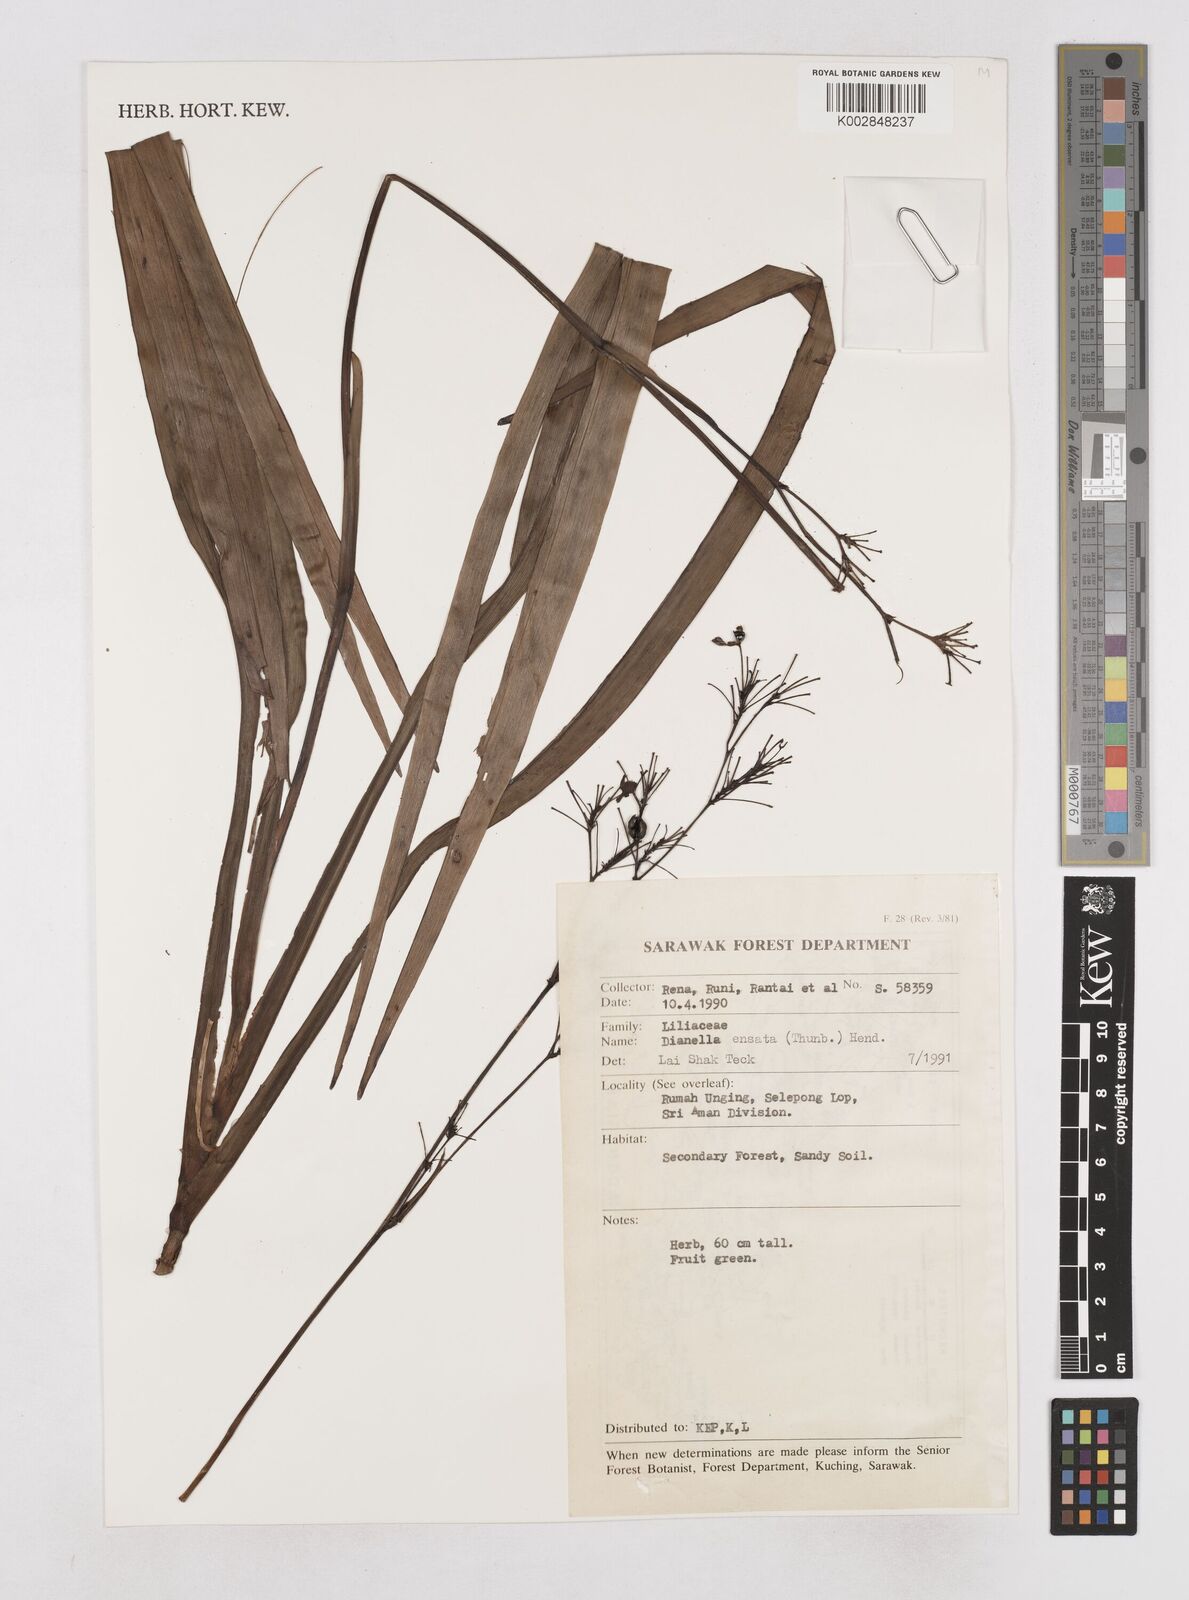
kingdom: Plantae
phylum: Tracheophyta
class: Liliopsida
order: Asparagales
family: Asphodelaceae
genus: Dianella
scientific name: Dianella ensifolia
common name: New zealand lilyplant
